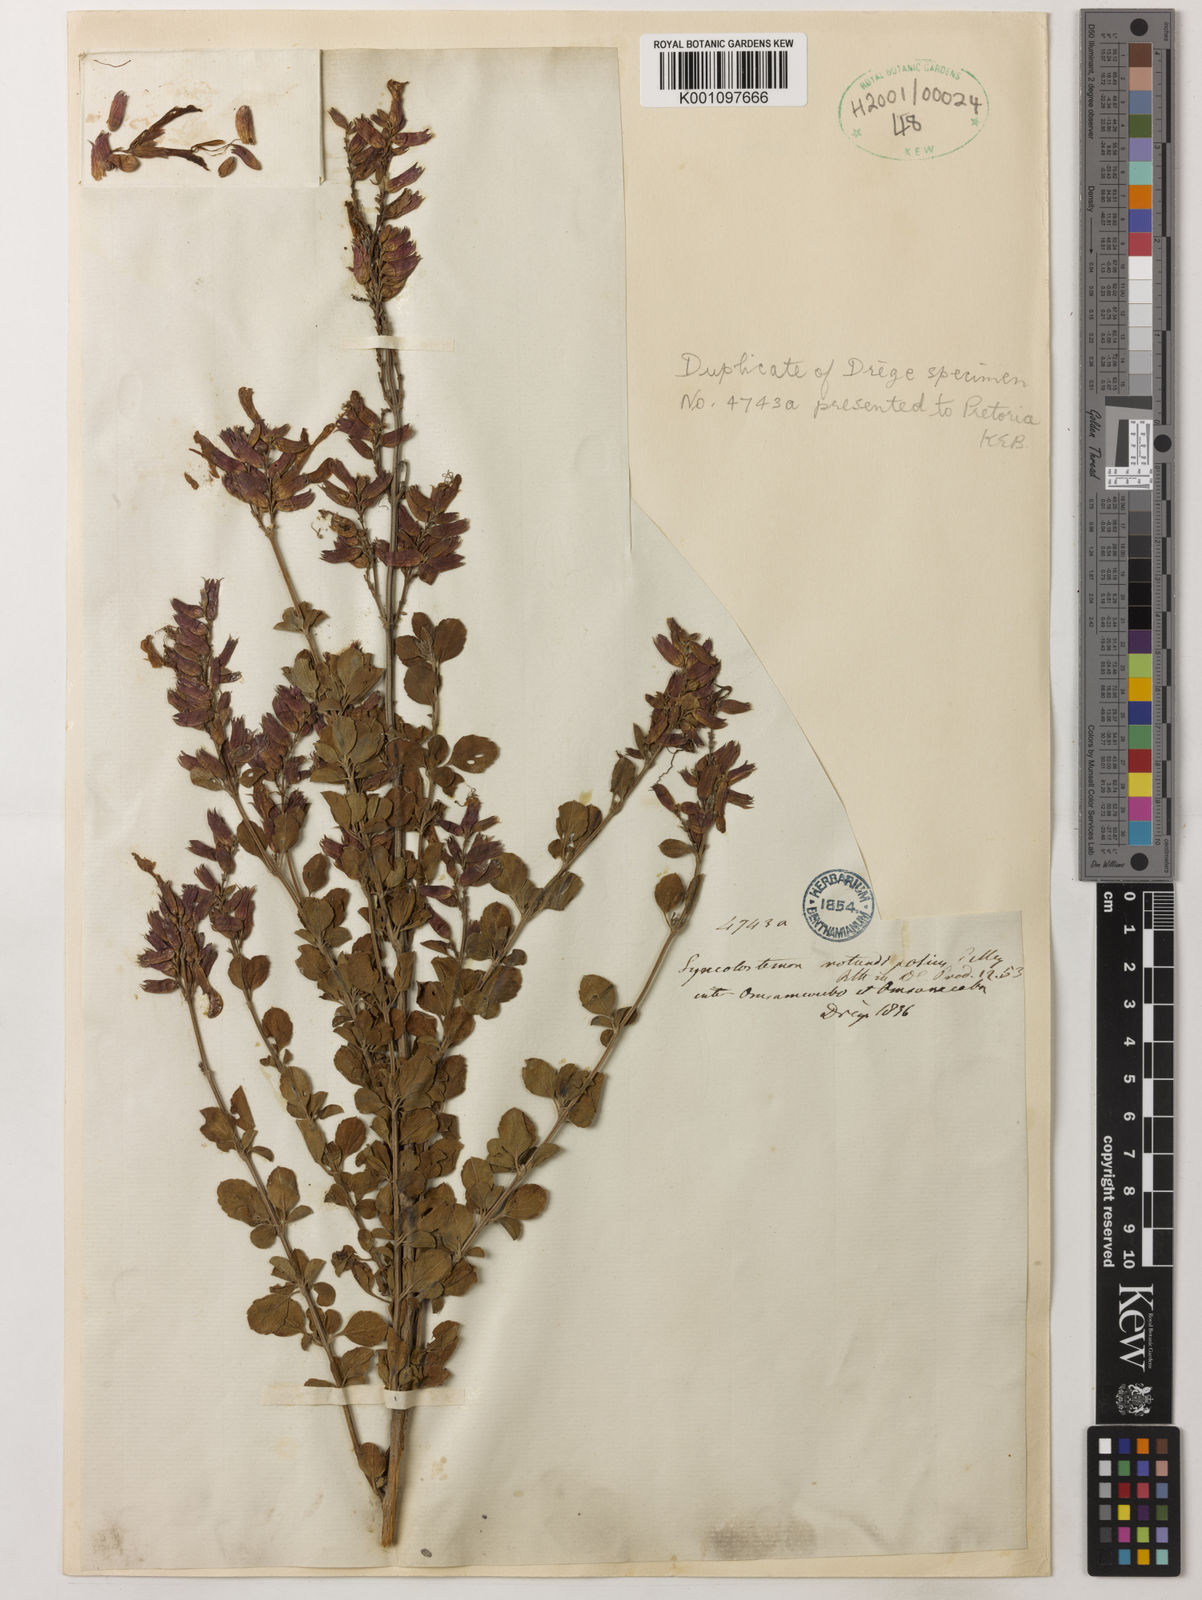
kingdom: Plantae
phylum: Tracheophyta
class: Magnoliopsida
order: Lamiales
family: Lamiaceae
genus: Syncolostemon
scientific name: Syncolostemon rotundifolius
